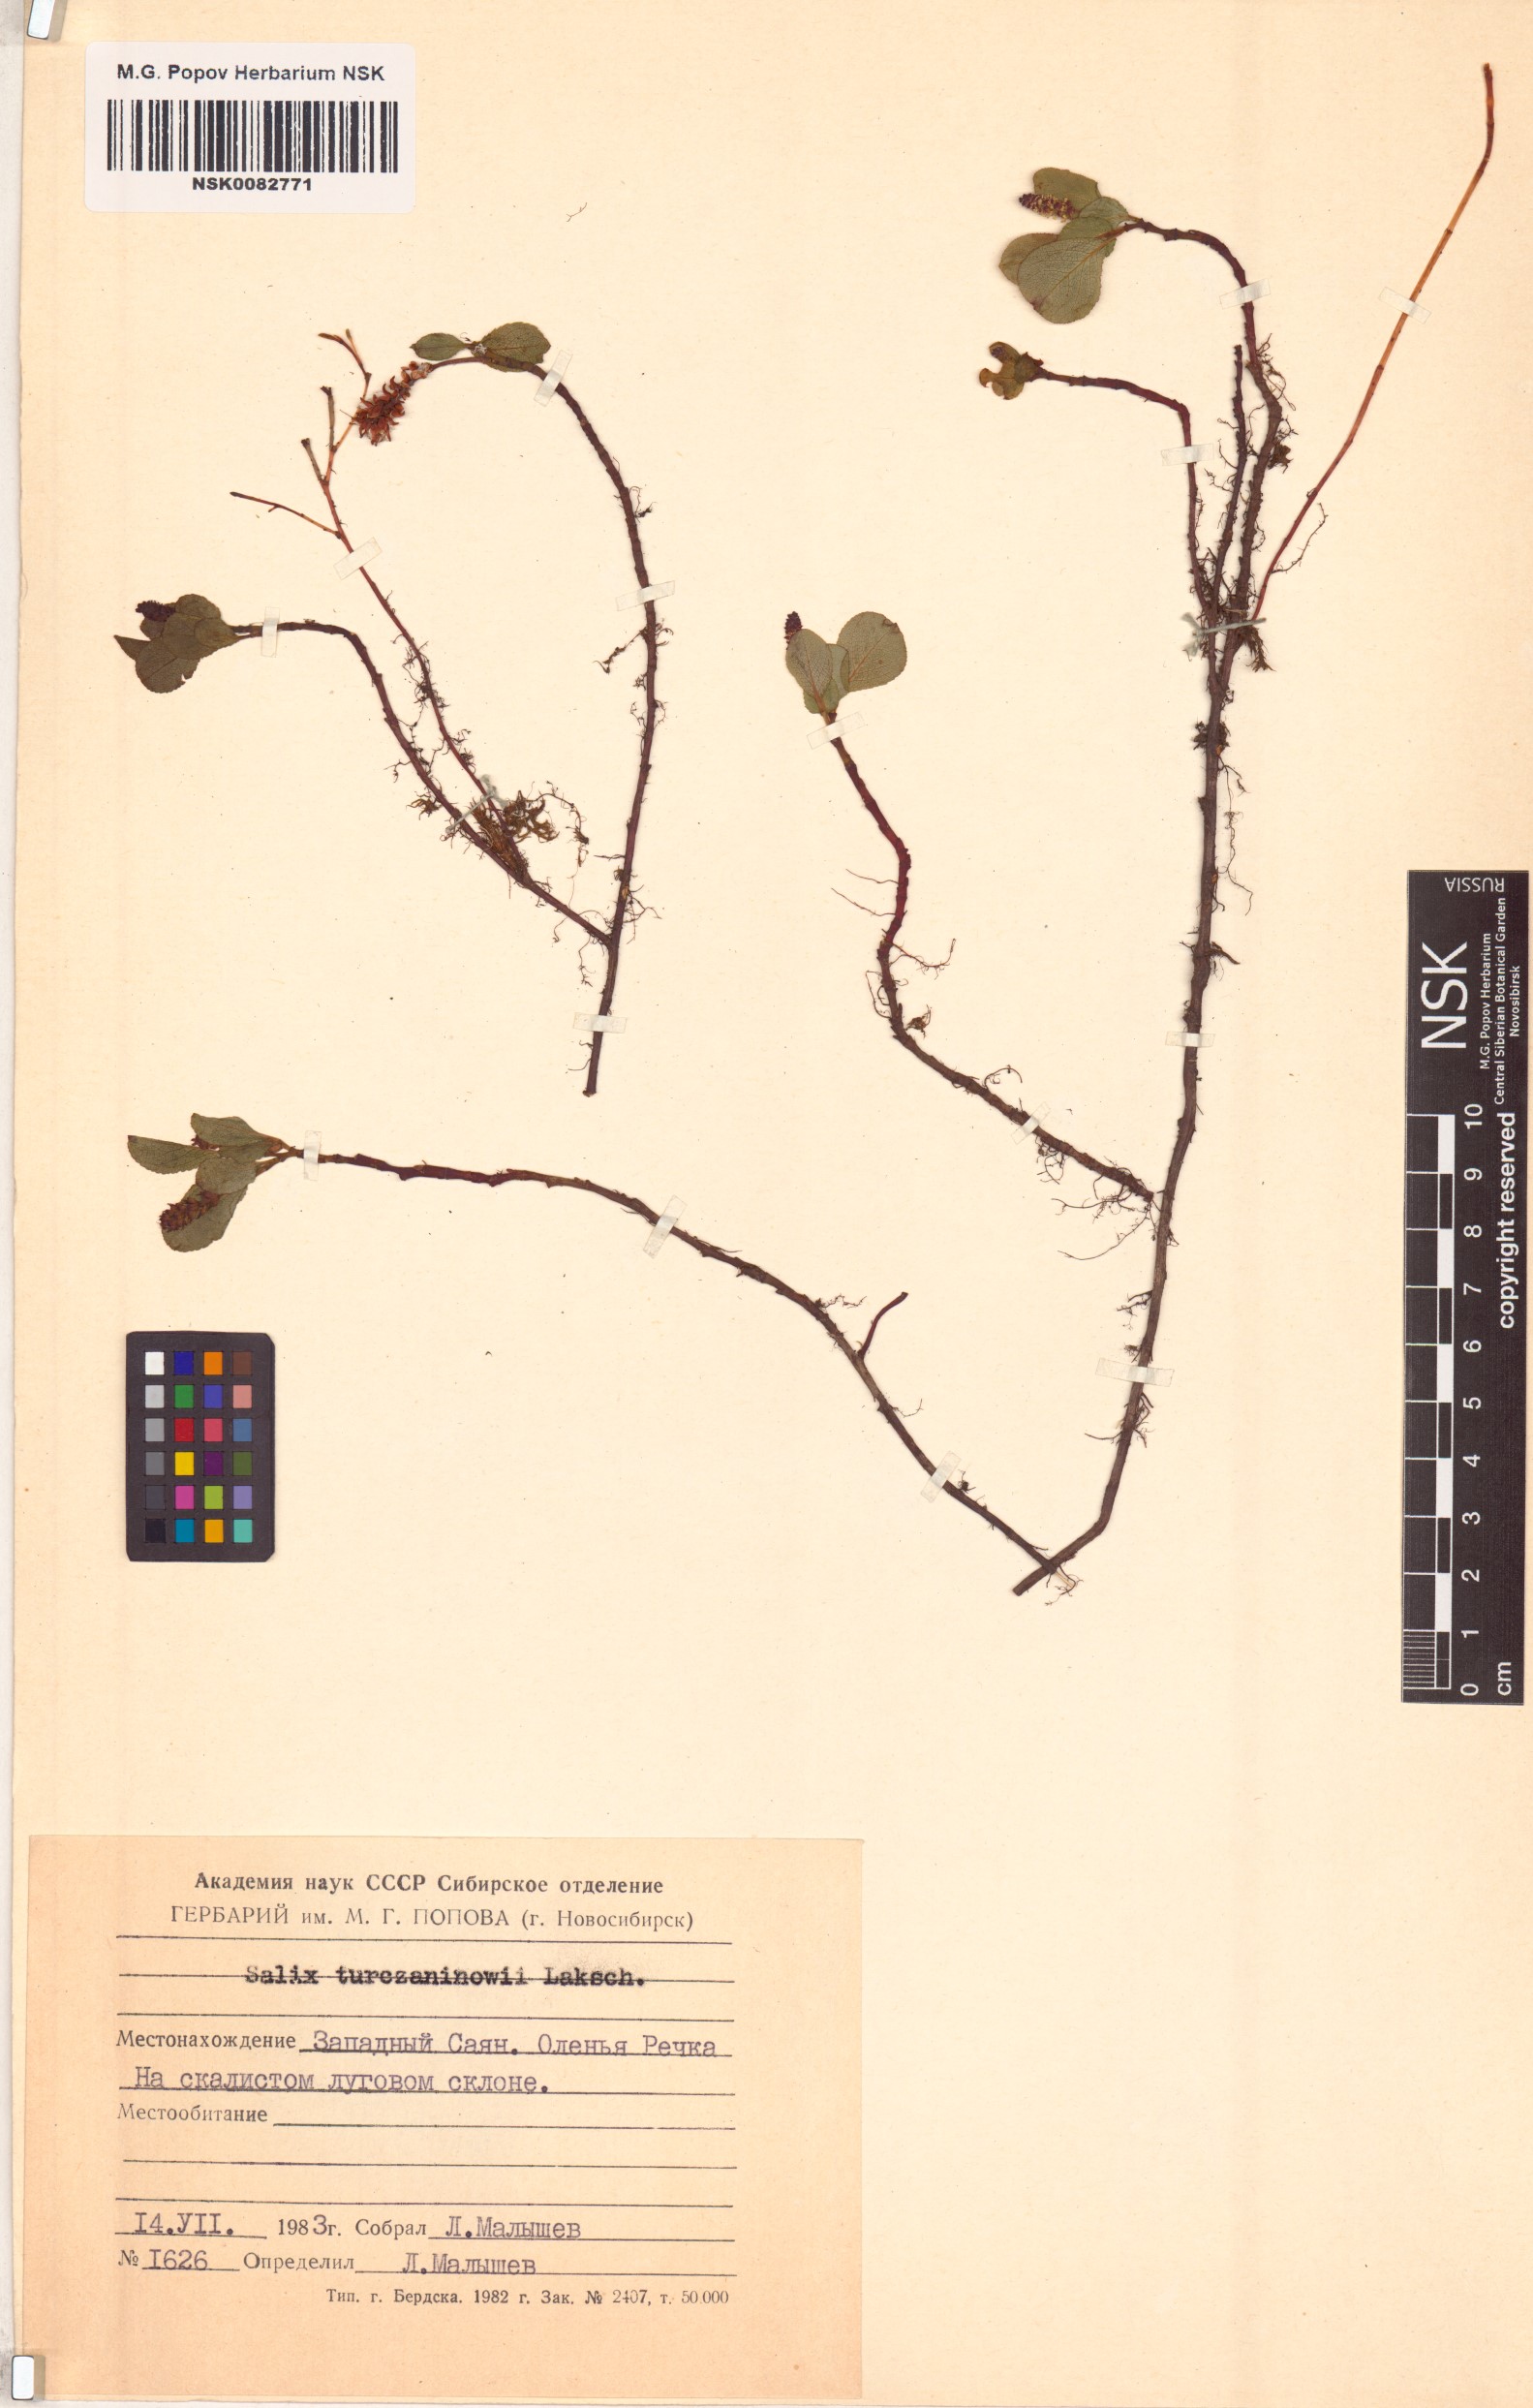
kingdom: Plantae
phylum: Tracheophyta
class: Magnoliopsida
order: Malpighiales
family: Salicaceae
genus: Salix
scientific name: Salix turczaninowii
